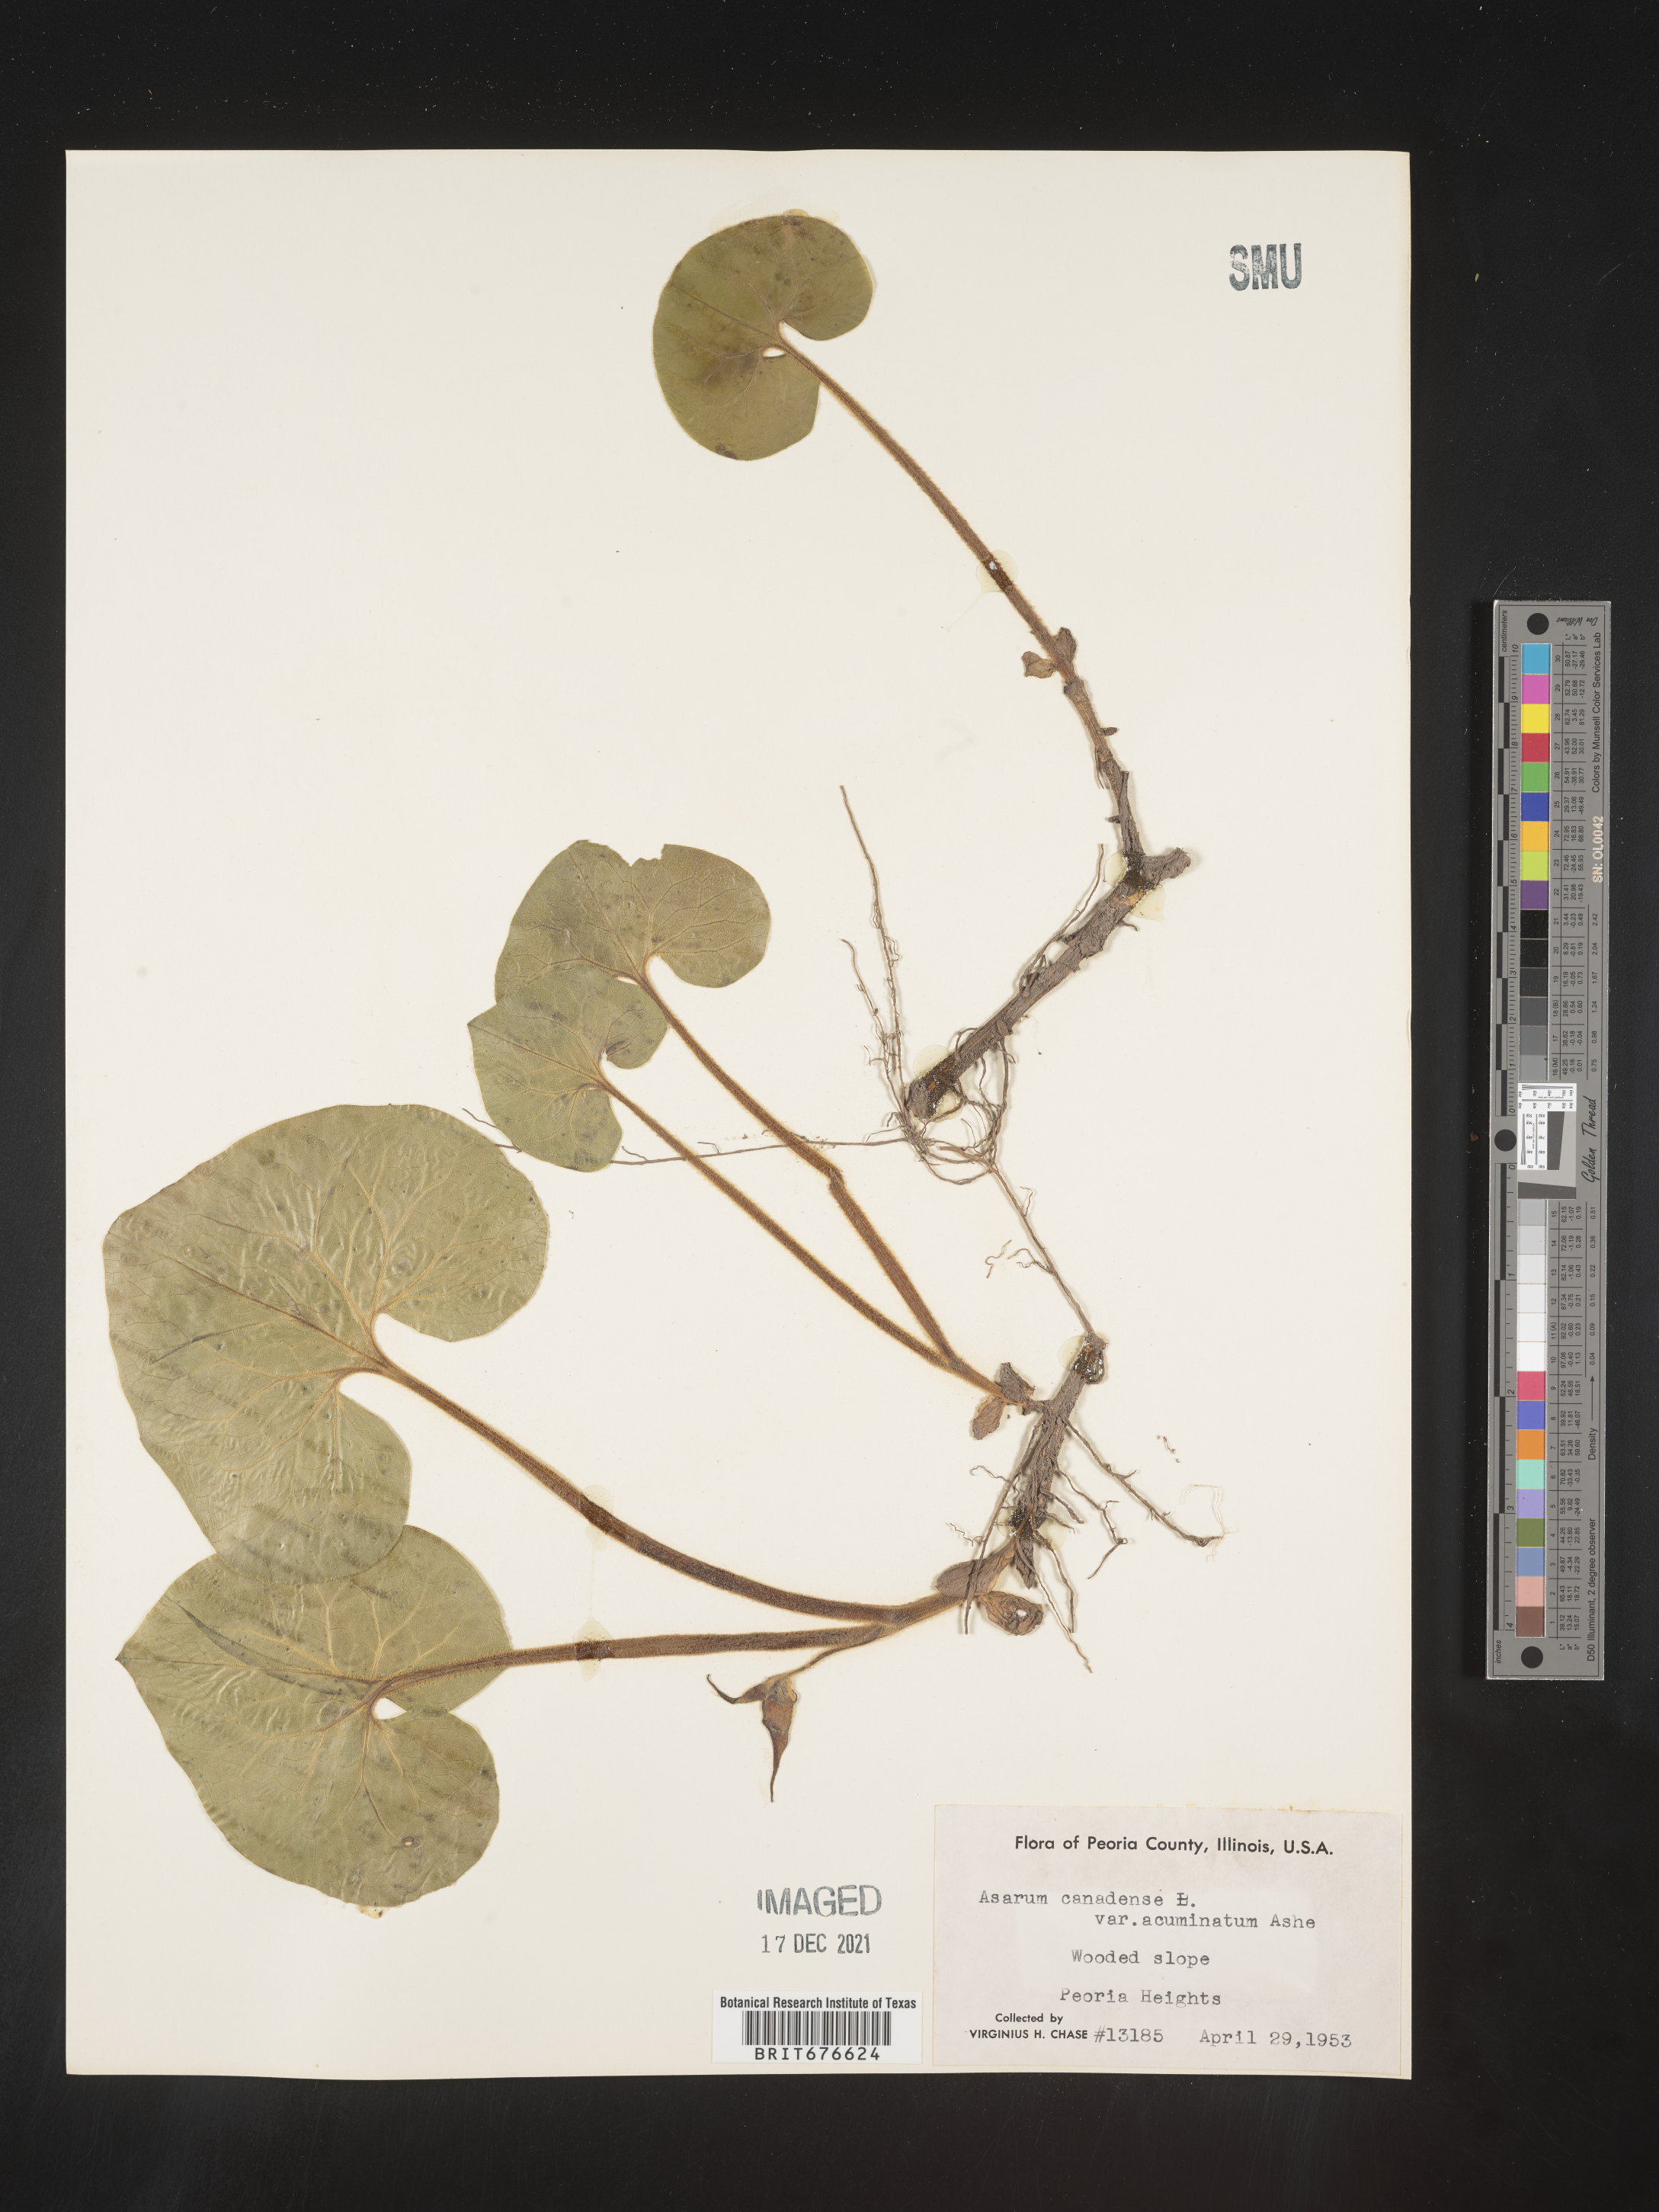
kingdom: Plantae
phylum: Tracheophyta
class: Magnoliopsida
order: Piperales
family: Aristolochiaceae
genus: Asarum
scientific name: Asarum canadense
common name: Wild ginger
